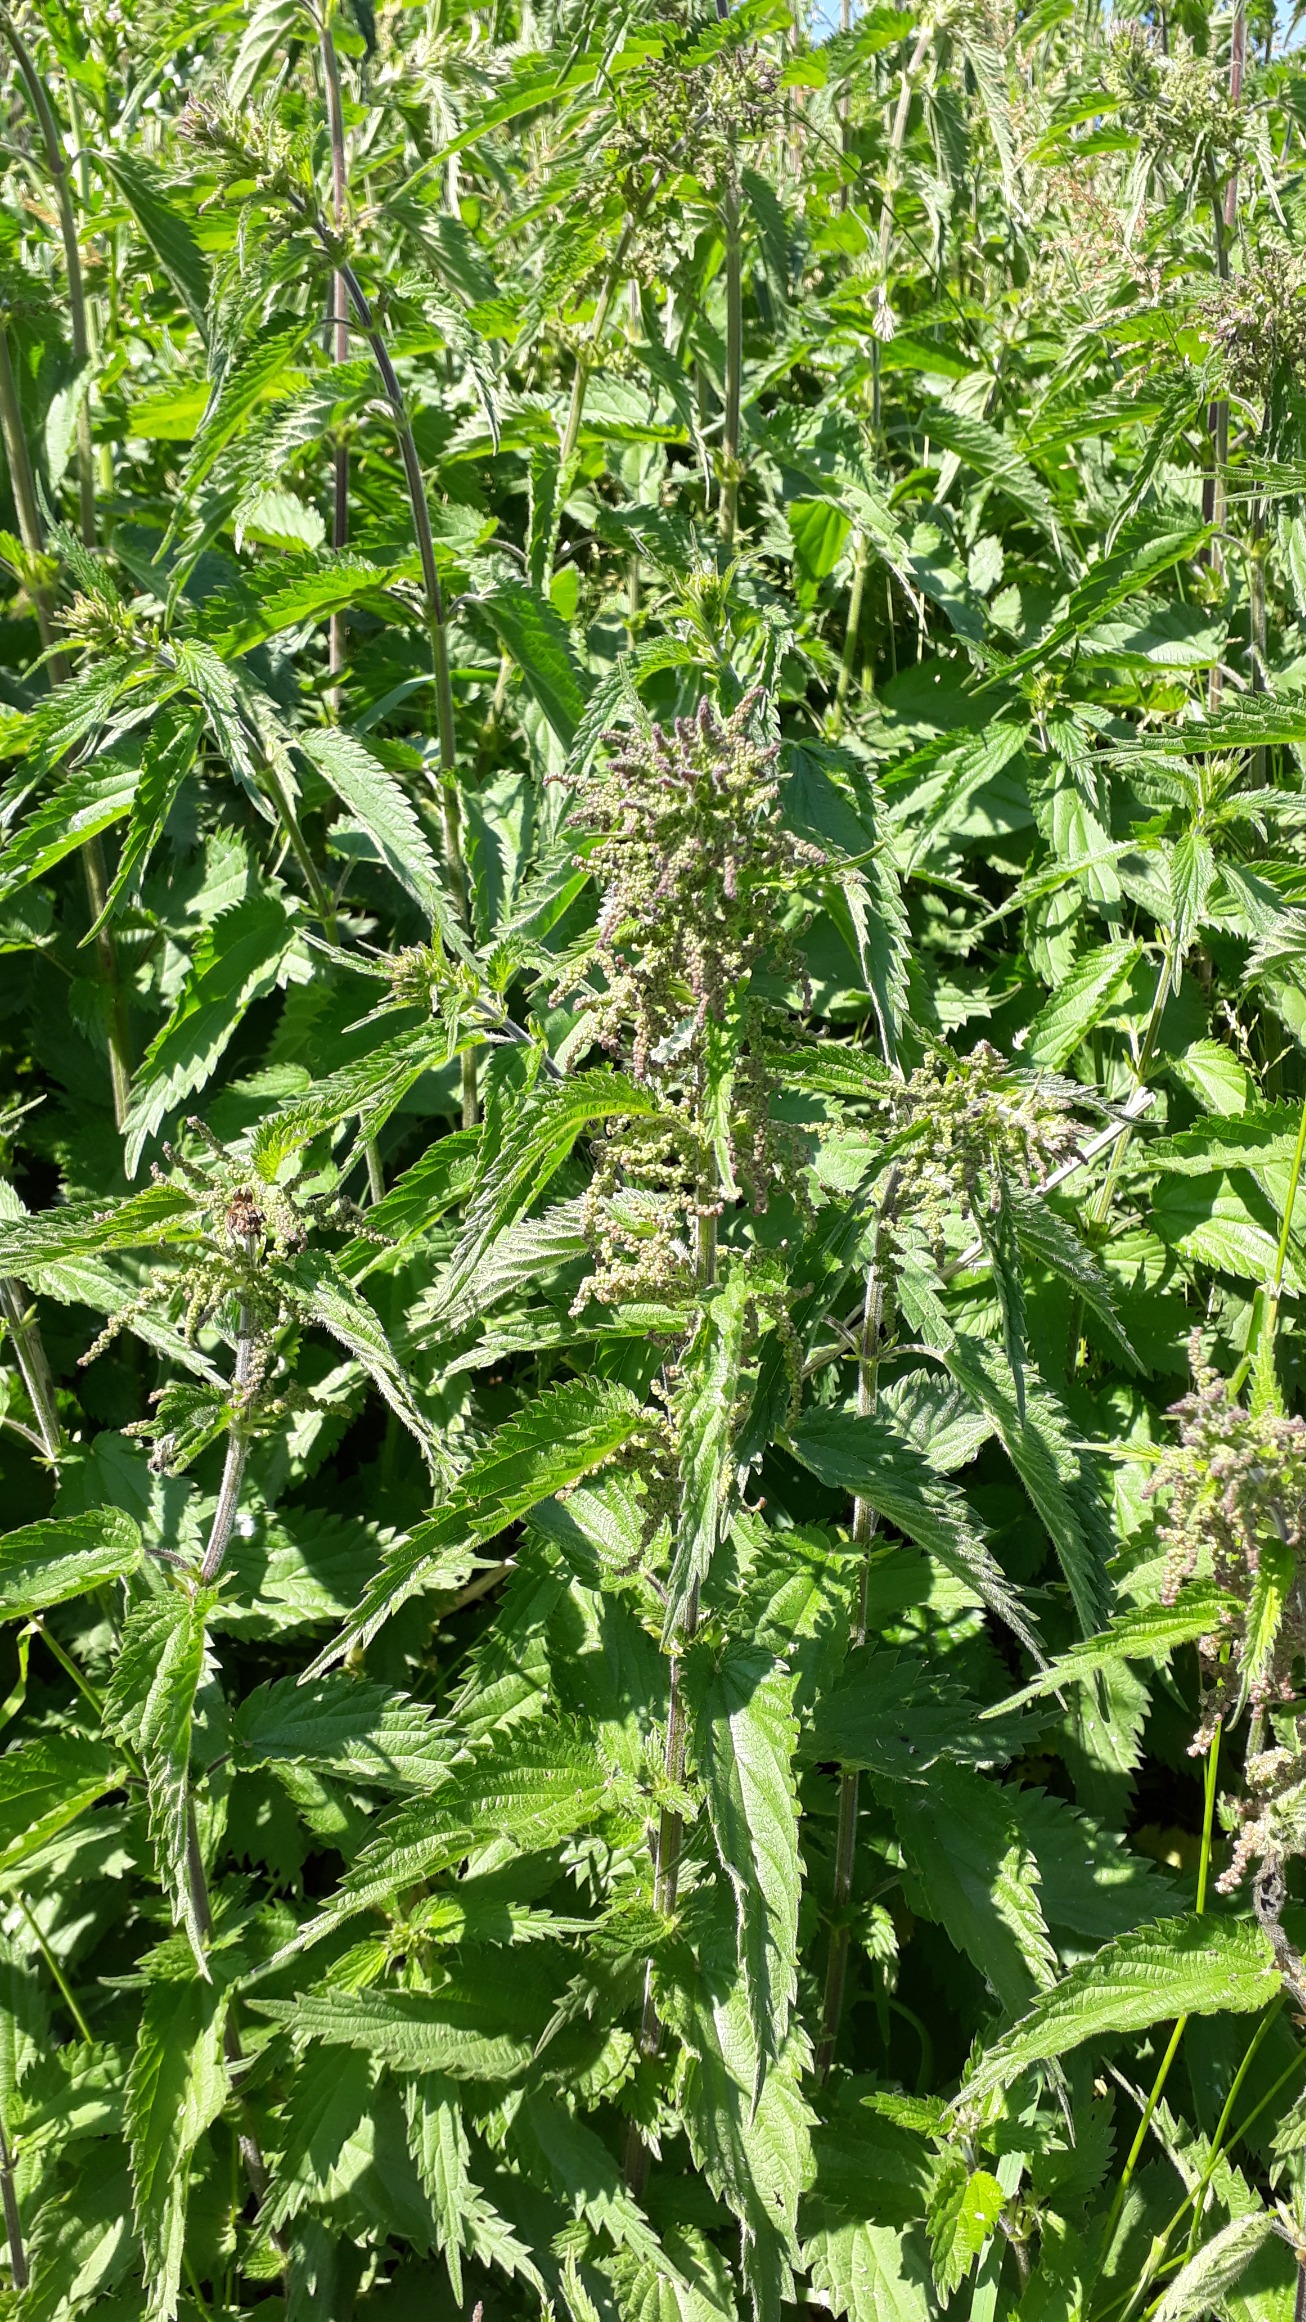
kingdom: Plantae
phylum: Tracheophyta
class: Magnoliopsida
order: Rosales
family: Urticaceae
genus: Urtica
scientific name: Urtica dioica
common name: Stor nælde
